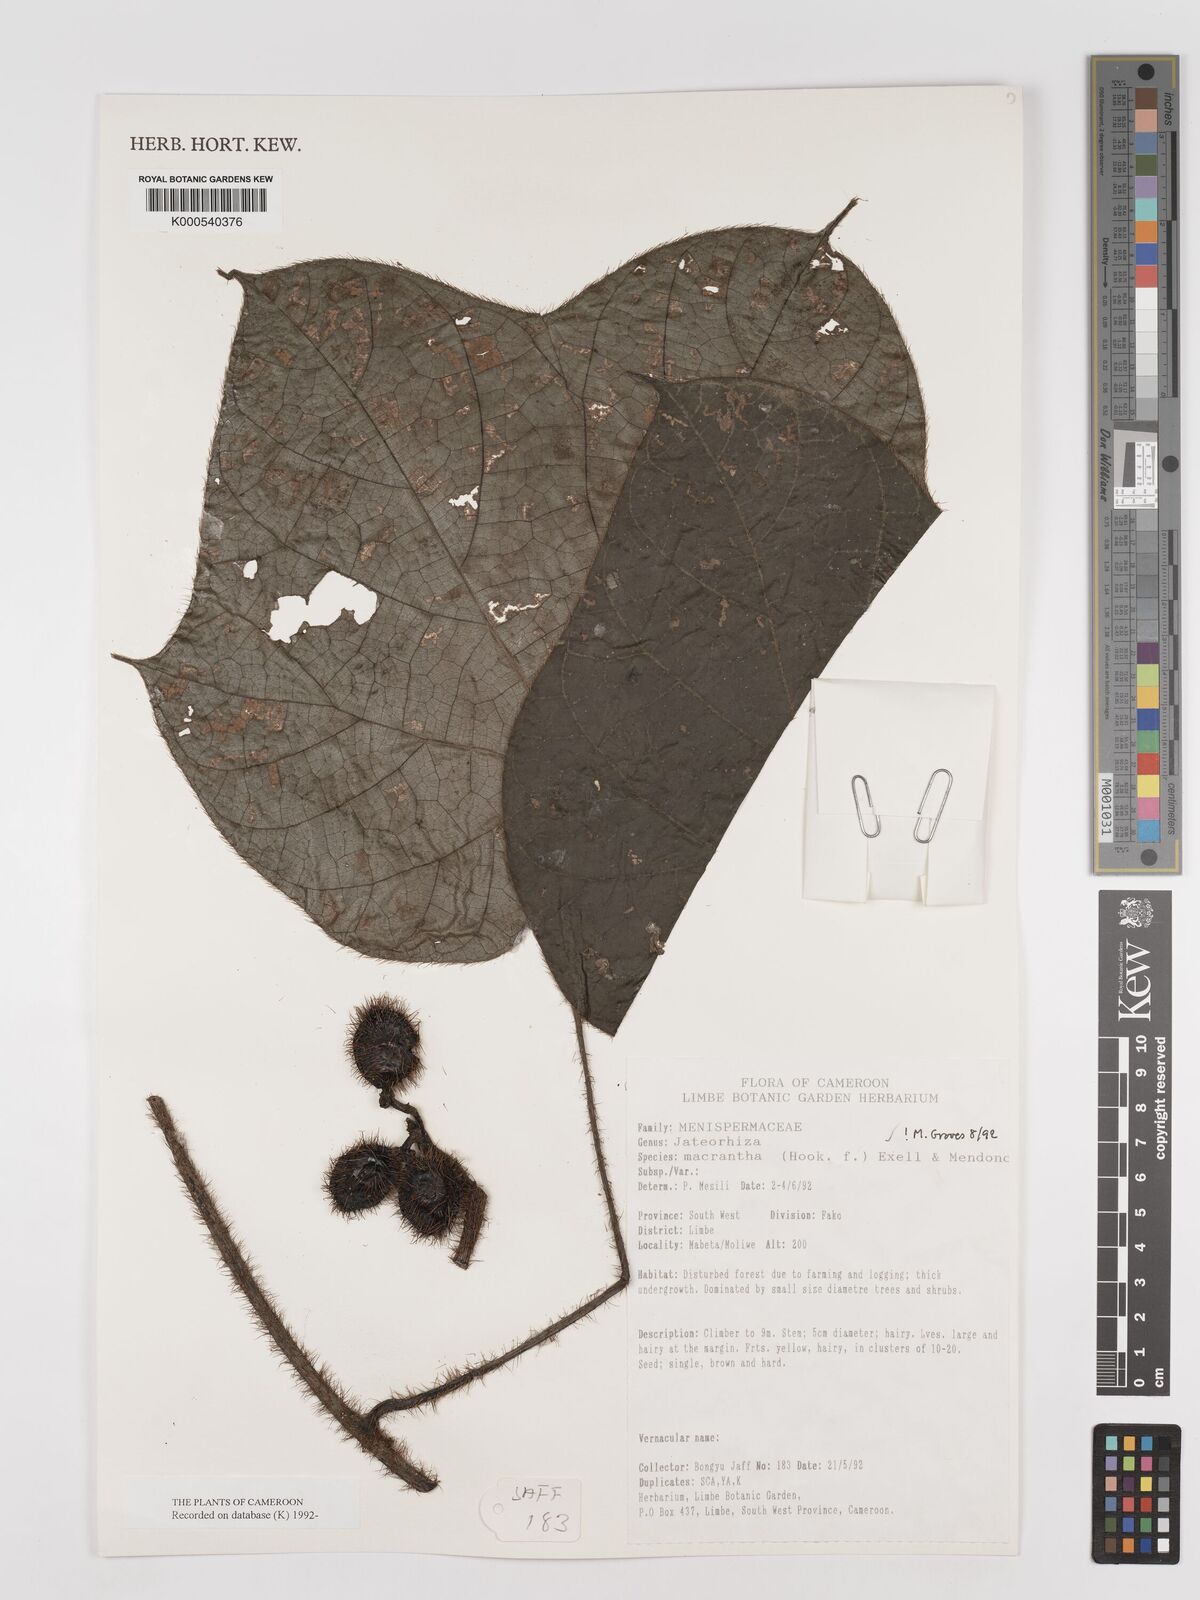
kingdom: Plantae
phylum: Tracheophyta
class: Magnoliopsida
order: Ranunculales
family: Menispermaceae
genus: Jateorhiza
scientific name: Jateorhiza
